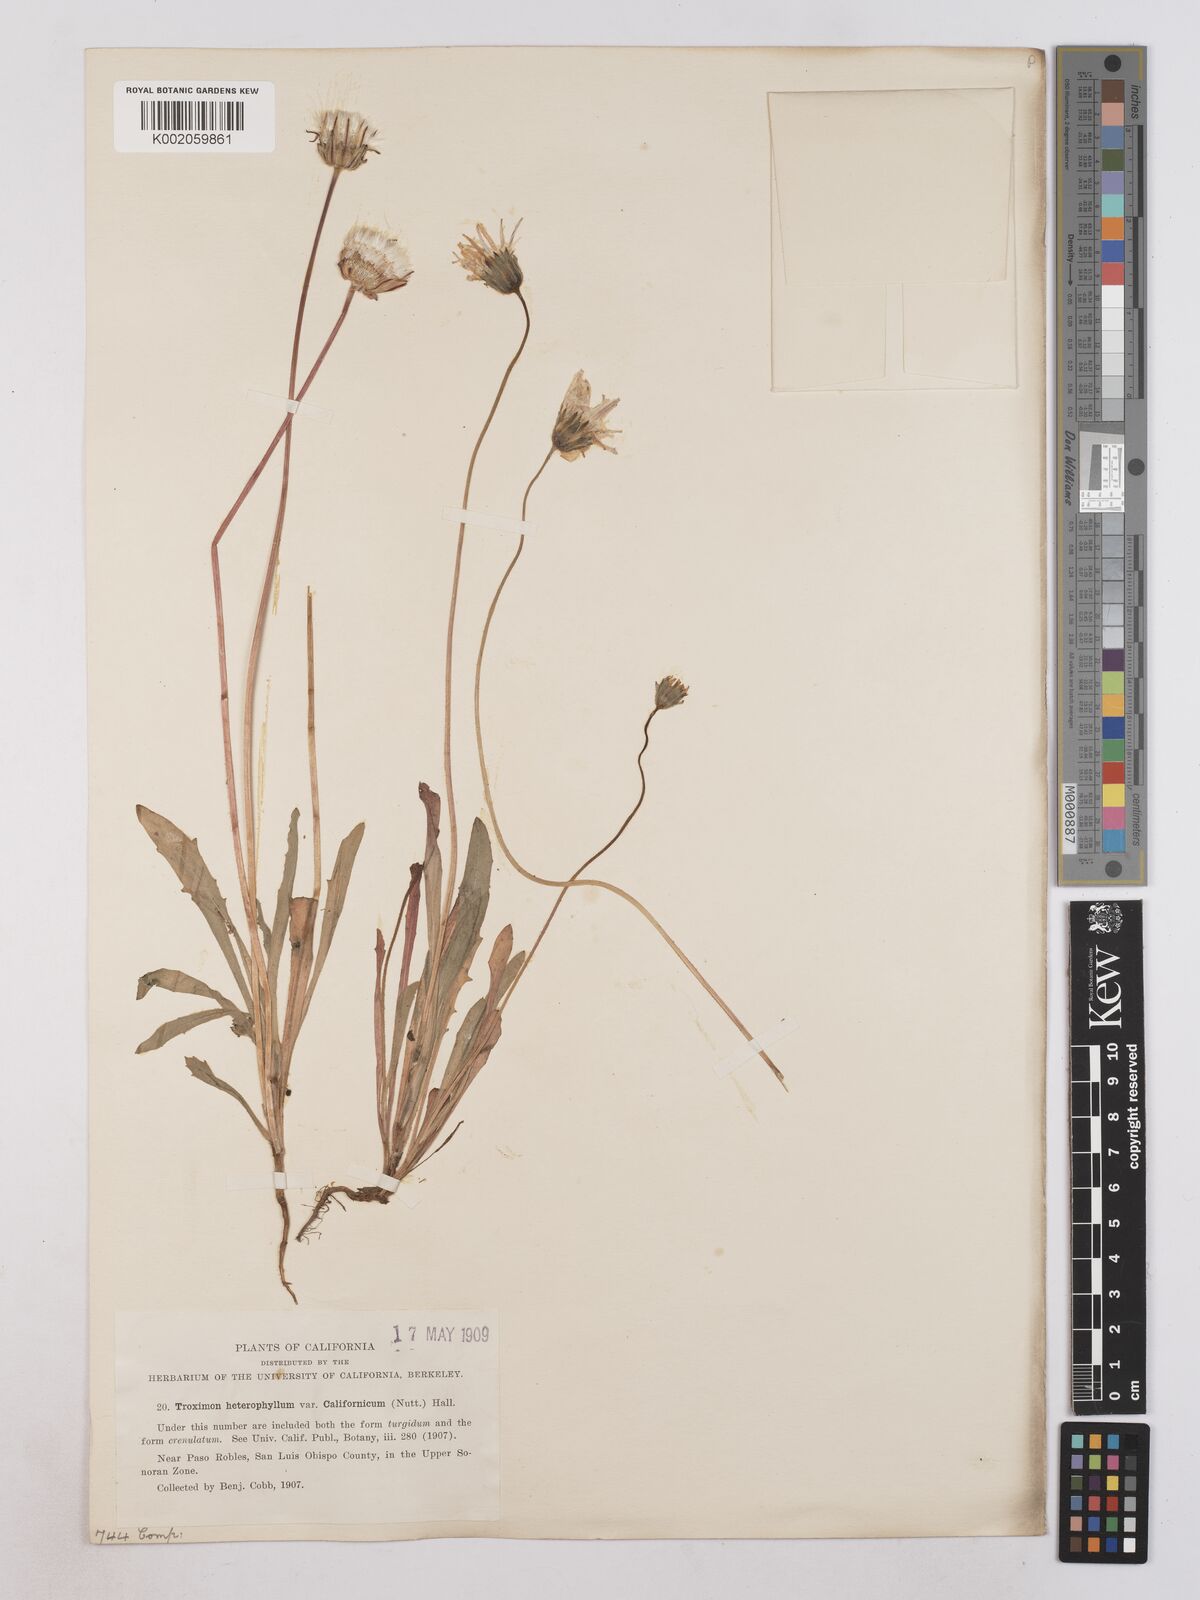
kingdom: Plantae
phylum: Tracheophyta
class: Magnoliopsida
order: Asterales
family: Asteraceae
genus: Agoseris
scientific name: Agoseris heterophylla
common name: Annual agoseris
